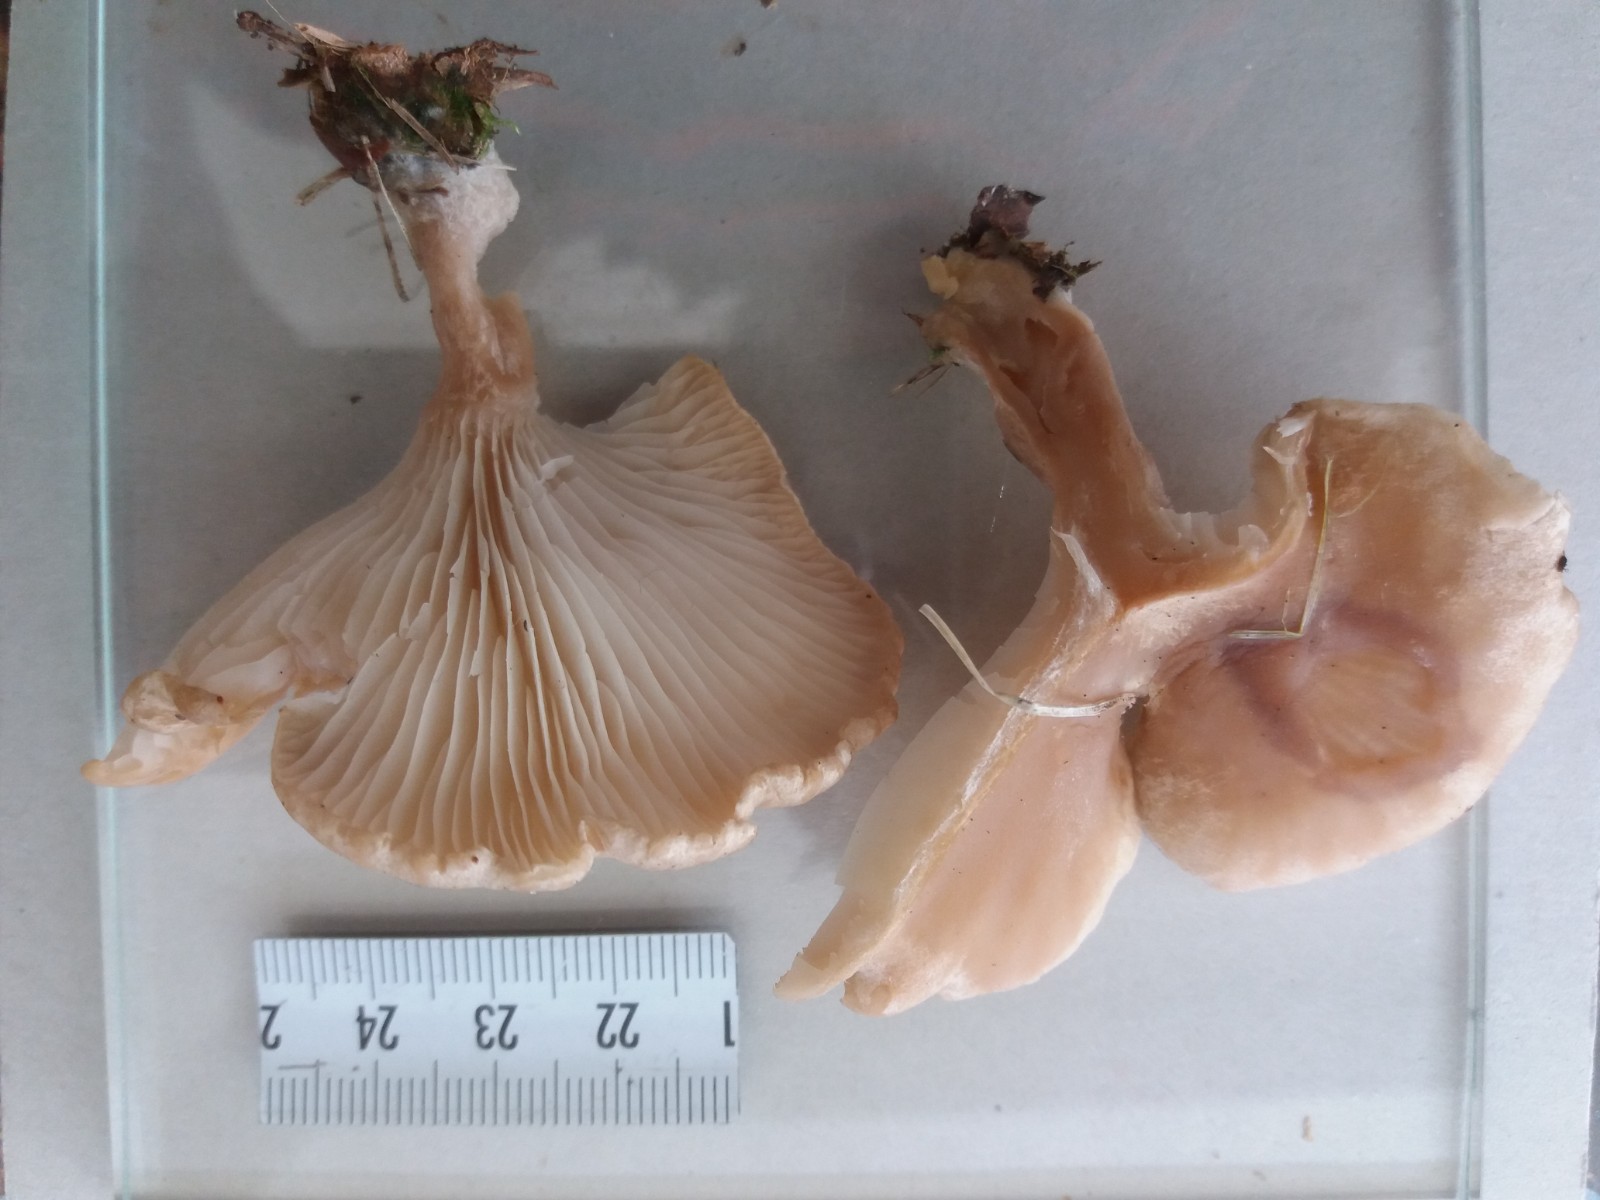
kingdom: Fungi
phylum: Basidiomycota
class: Agaricomycetes
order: Agaricales
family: Tricholomataceae
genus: Infundibulicybe
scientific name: Infundibulicybe
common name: tragthat
